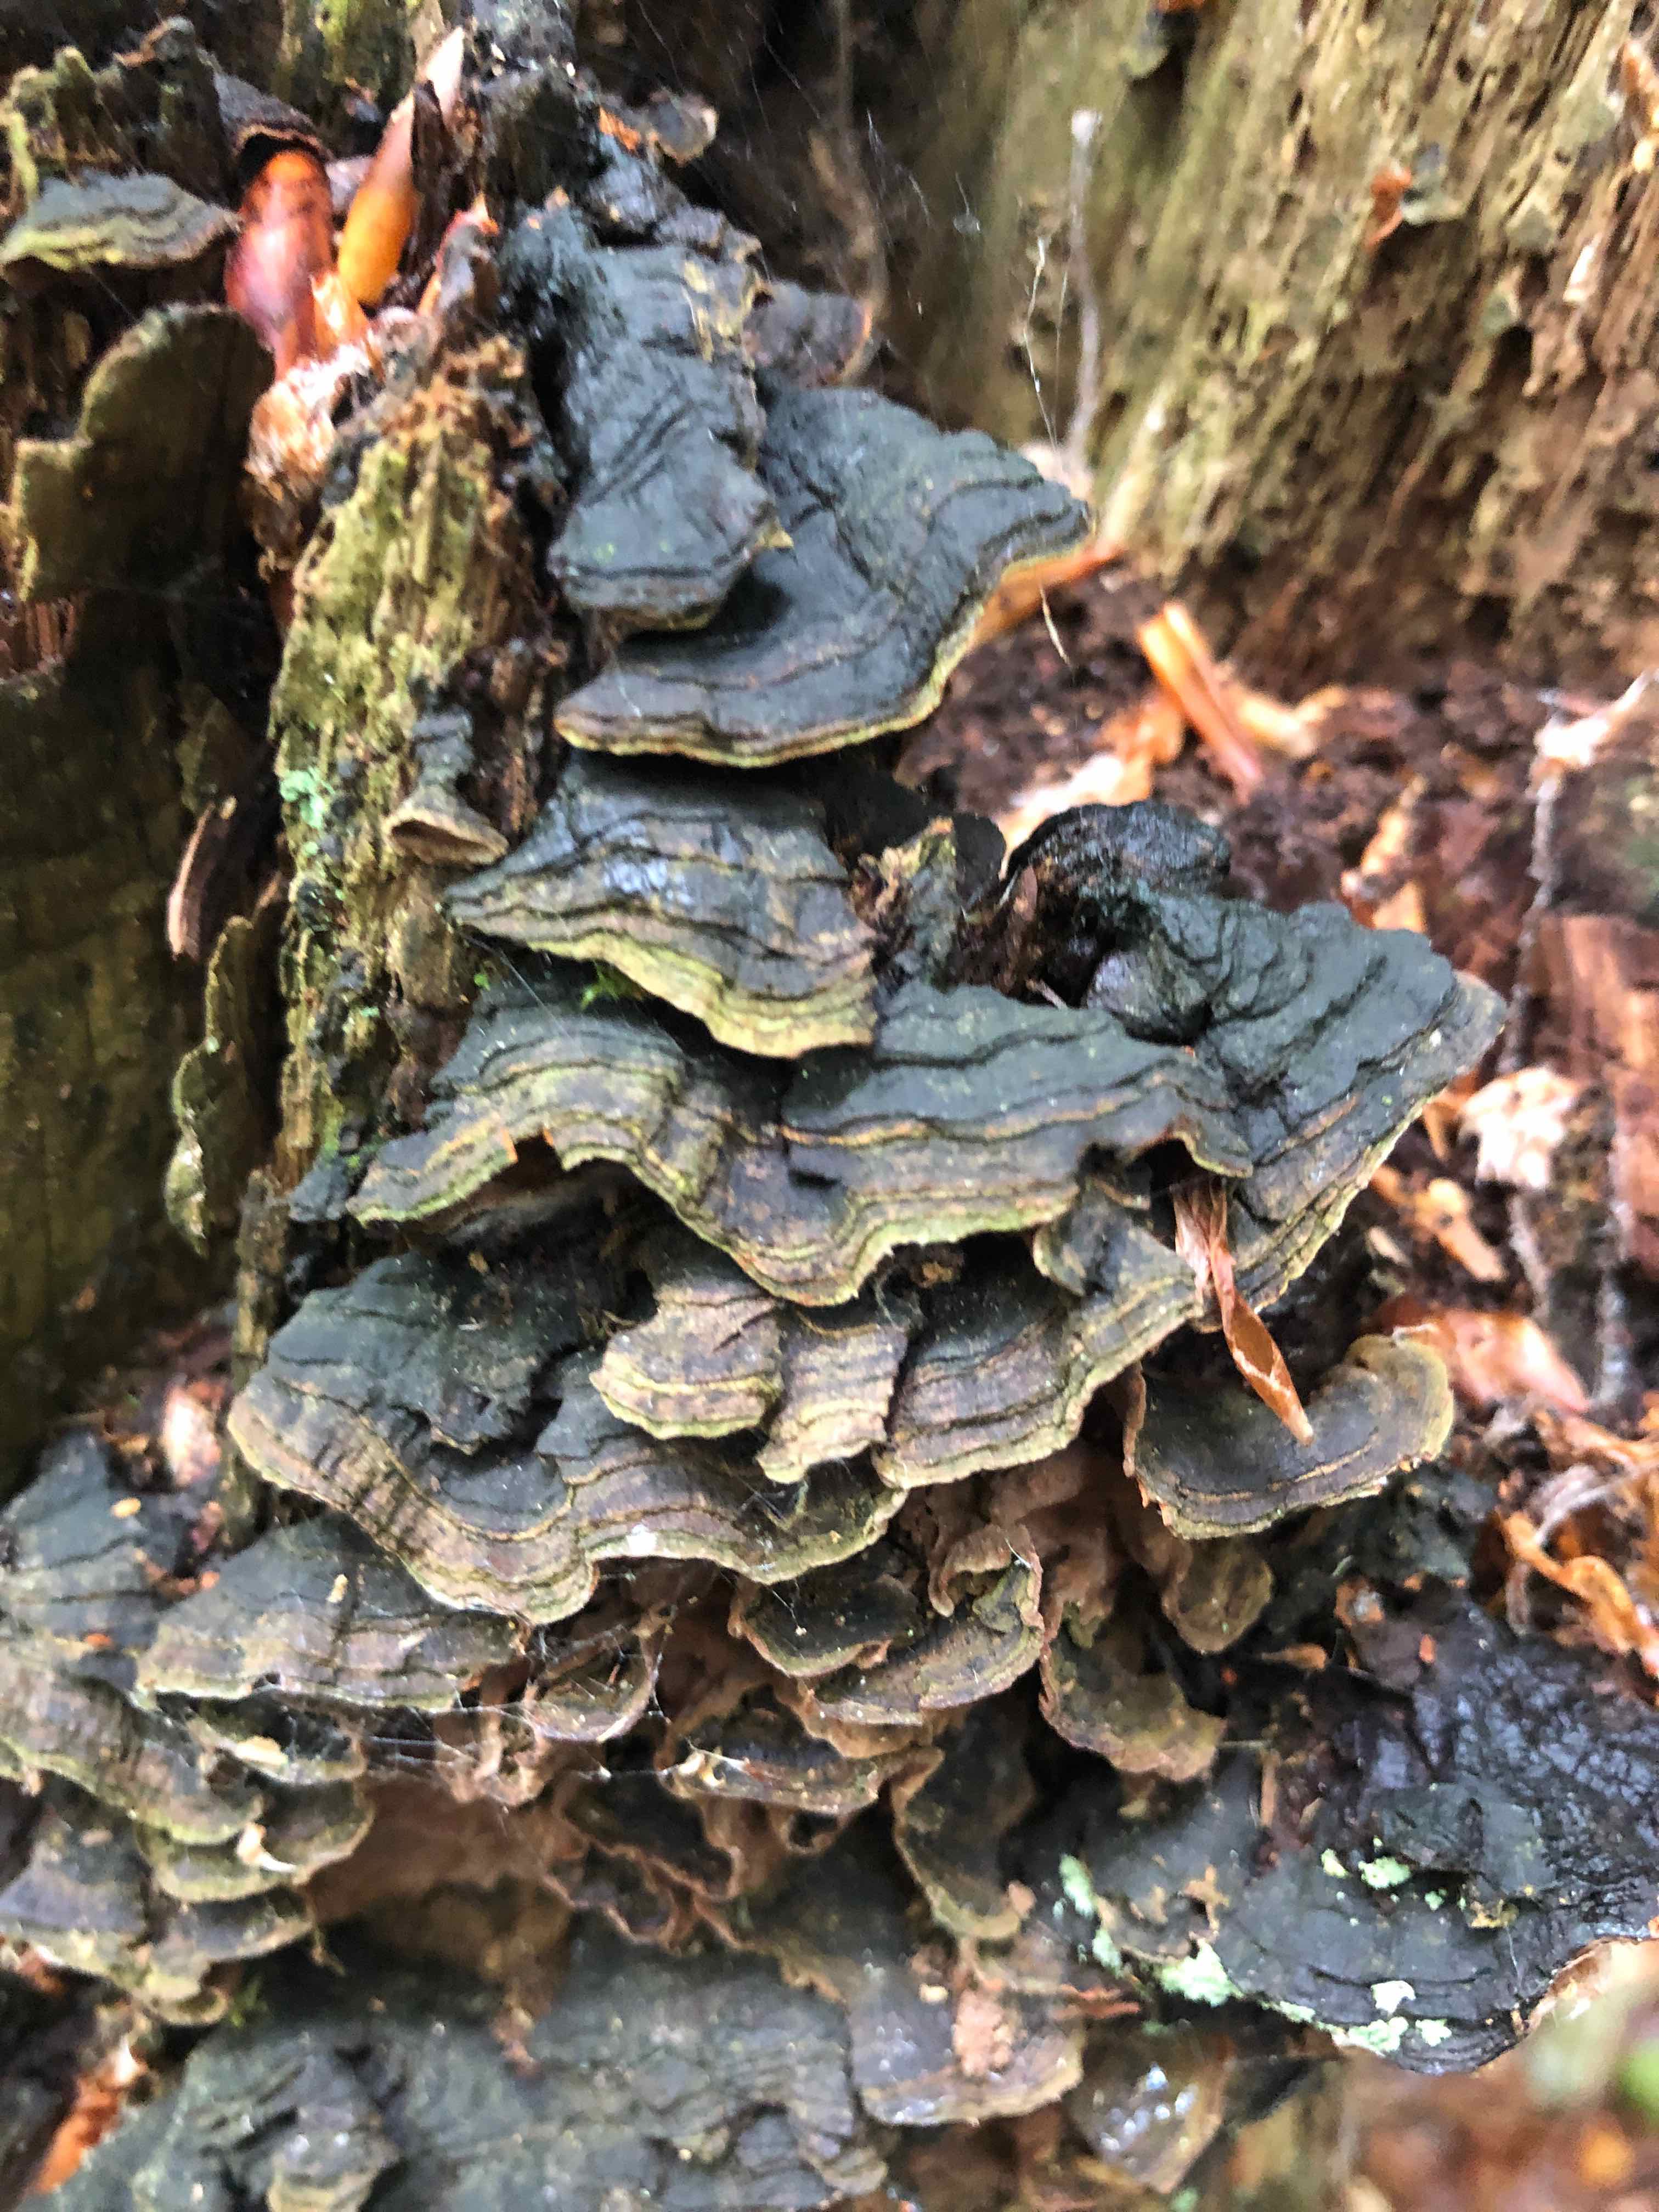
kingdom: Fungi
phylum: Basidiomycota
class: Agaricomycetes
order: Hymenochaetales
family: Hymenochaetaceae
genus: Hymenochaete
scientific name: Hymenochaete rubiginosa
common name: stiv ruslædersvamp
